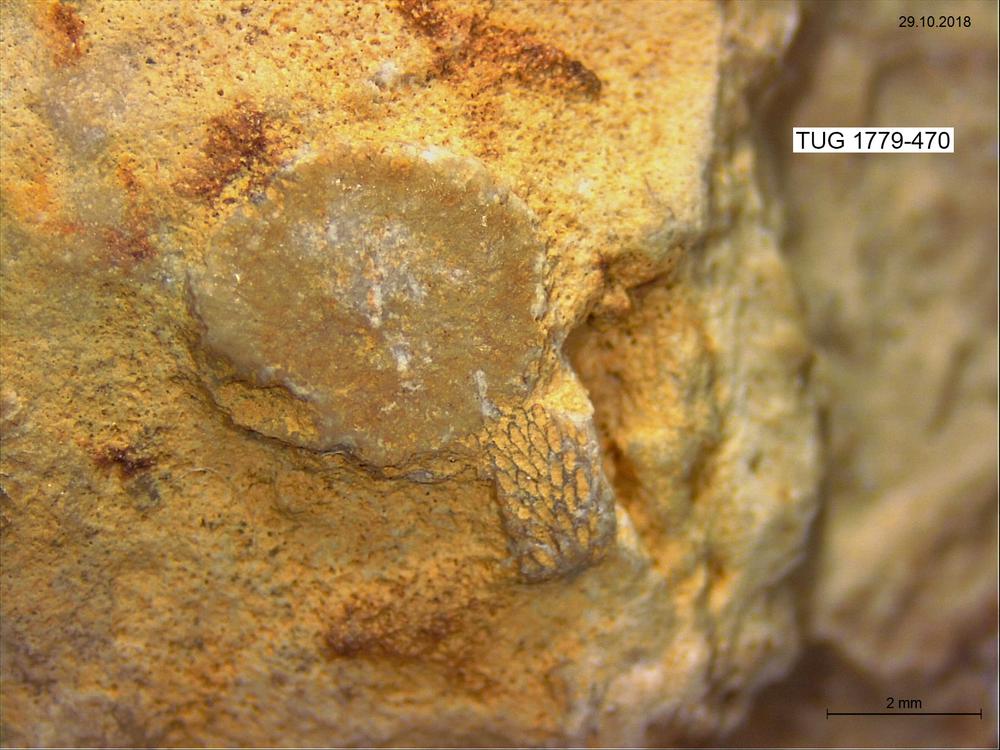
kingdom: Animalia
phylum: Bryozoa
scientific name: Bryozoa
